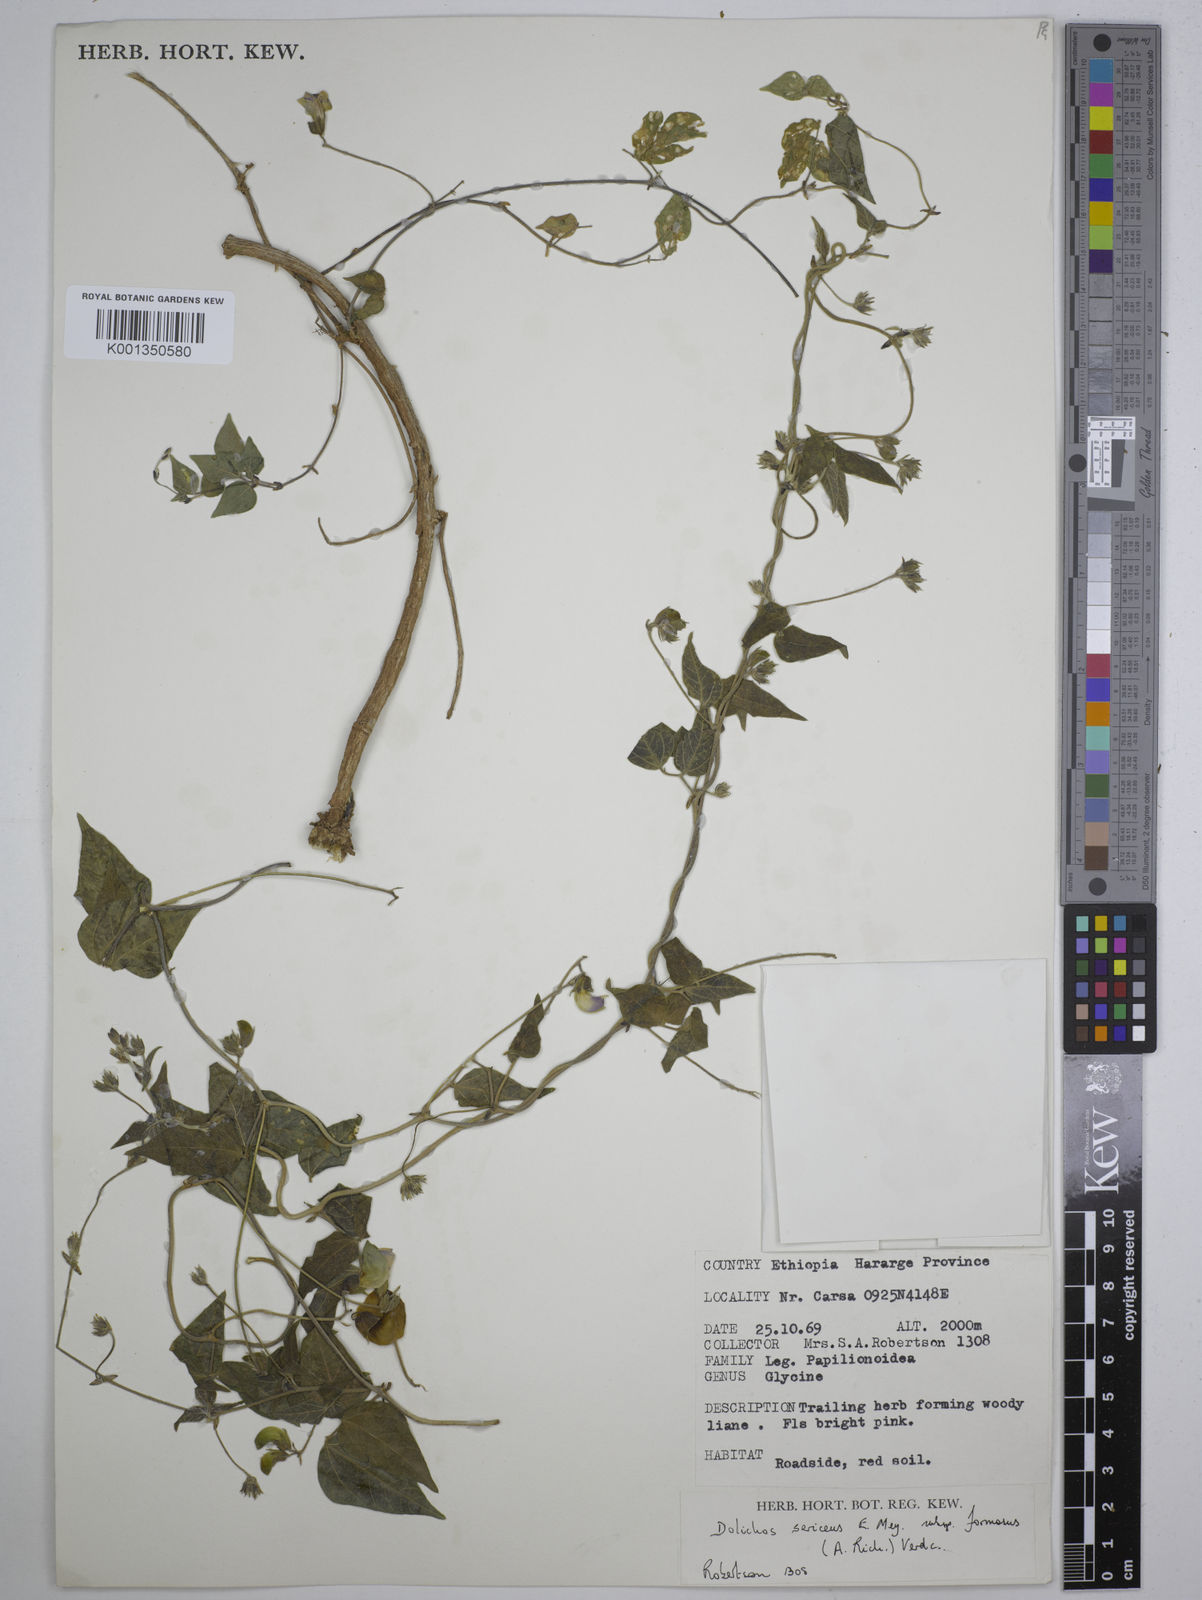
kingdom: Plantae
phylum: Tracheophyta
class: Magnoliopsida
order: Fabales
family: Fabaceae
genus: Dolichos
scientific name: Dolichos
